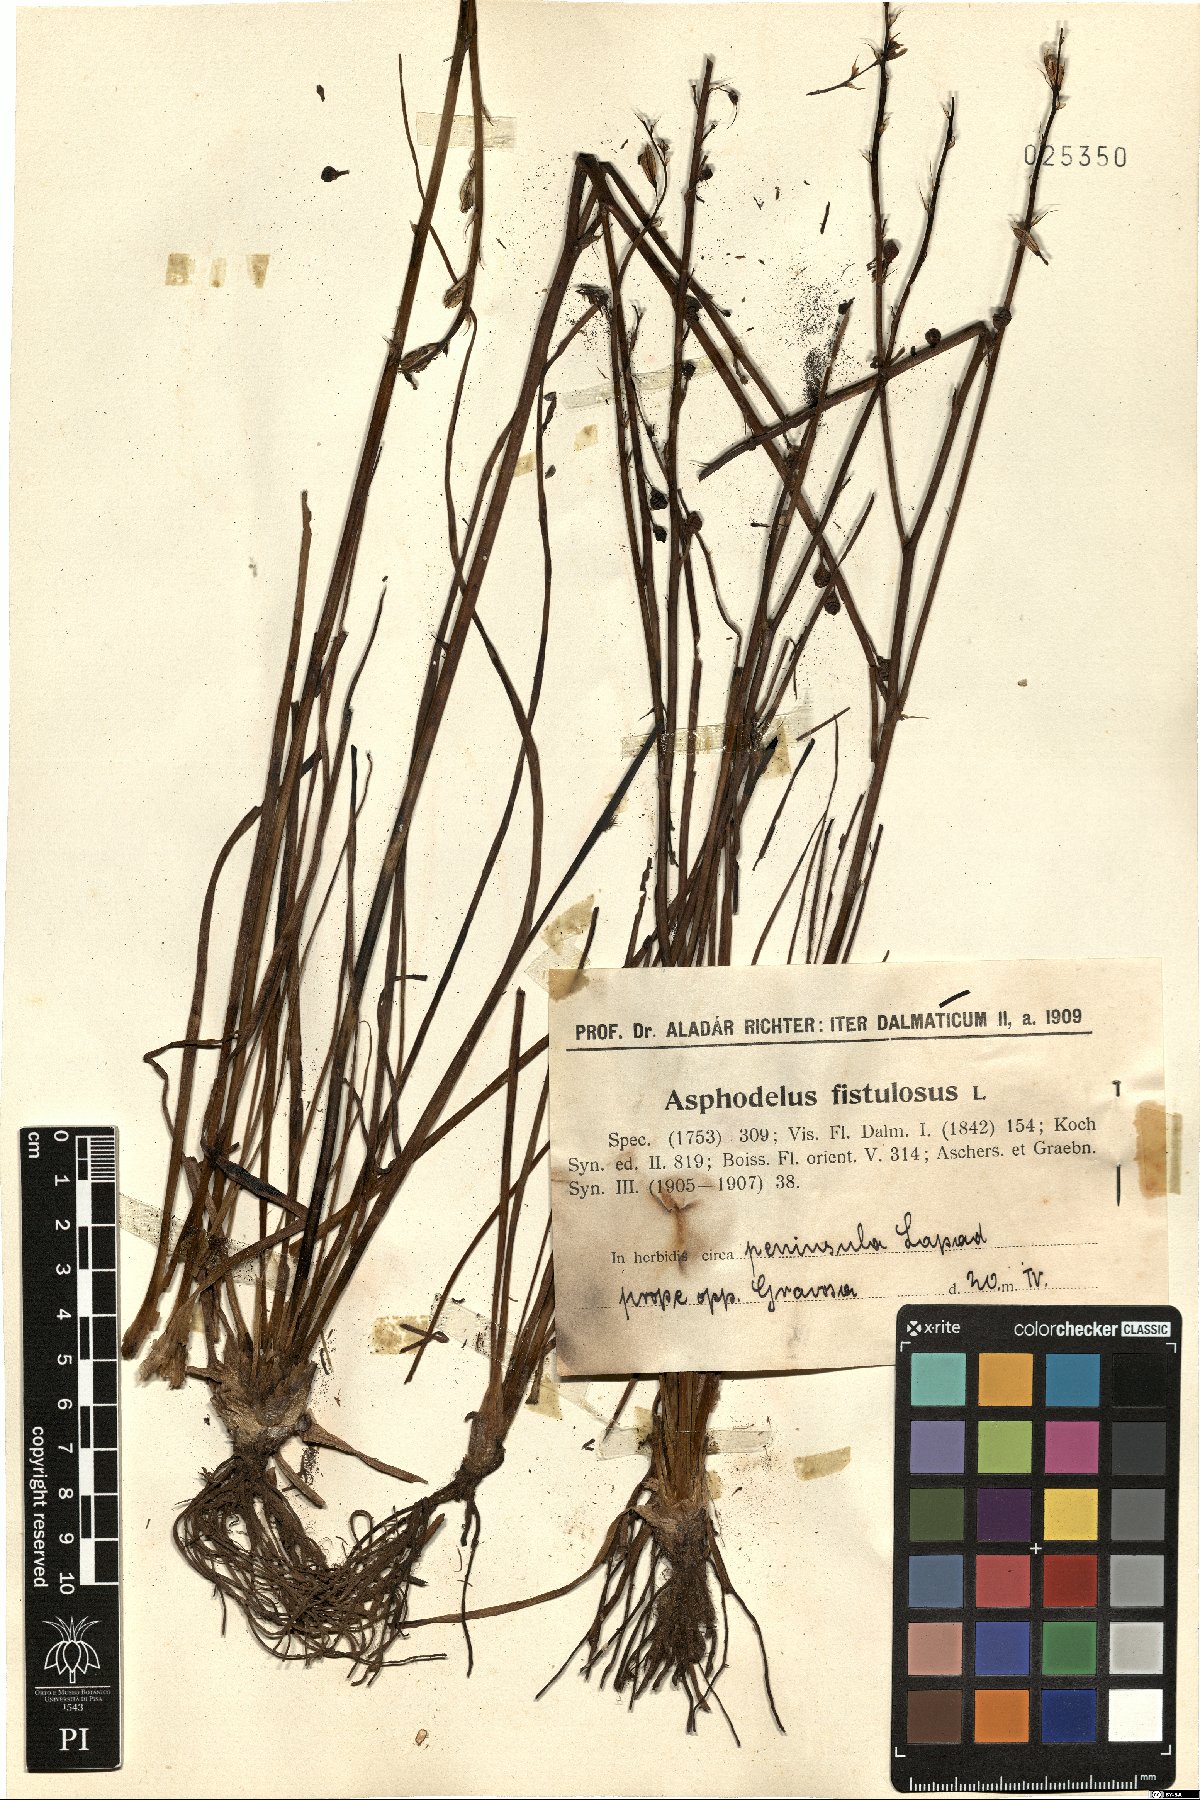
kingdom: Plantae
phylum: Tracheophyta
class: Liliopsida
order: Asparagales
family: Asphodelaceae
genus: Asphodelus
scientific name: Asphodelus fistulosus
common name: Onionweed
